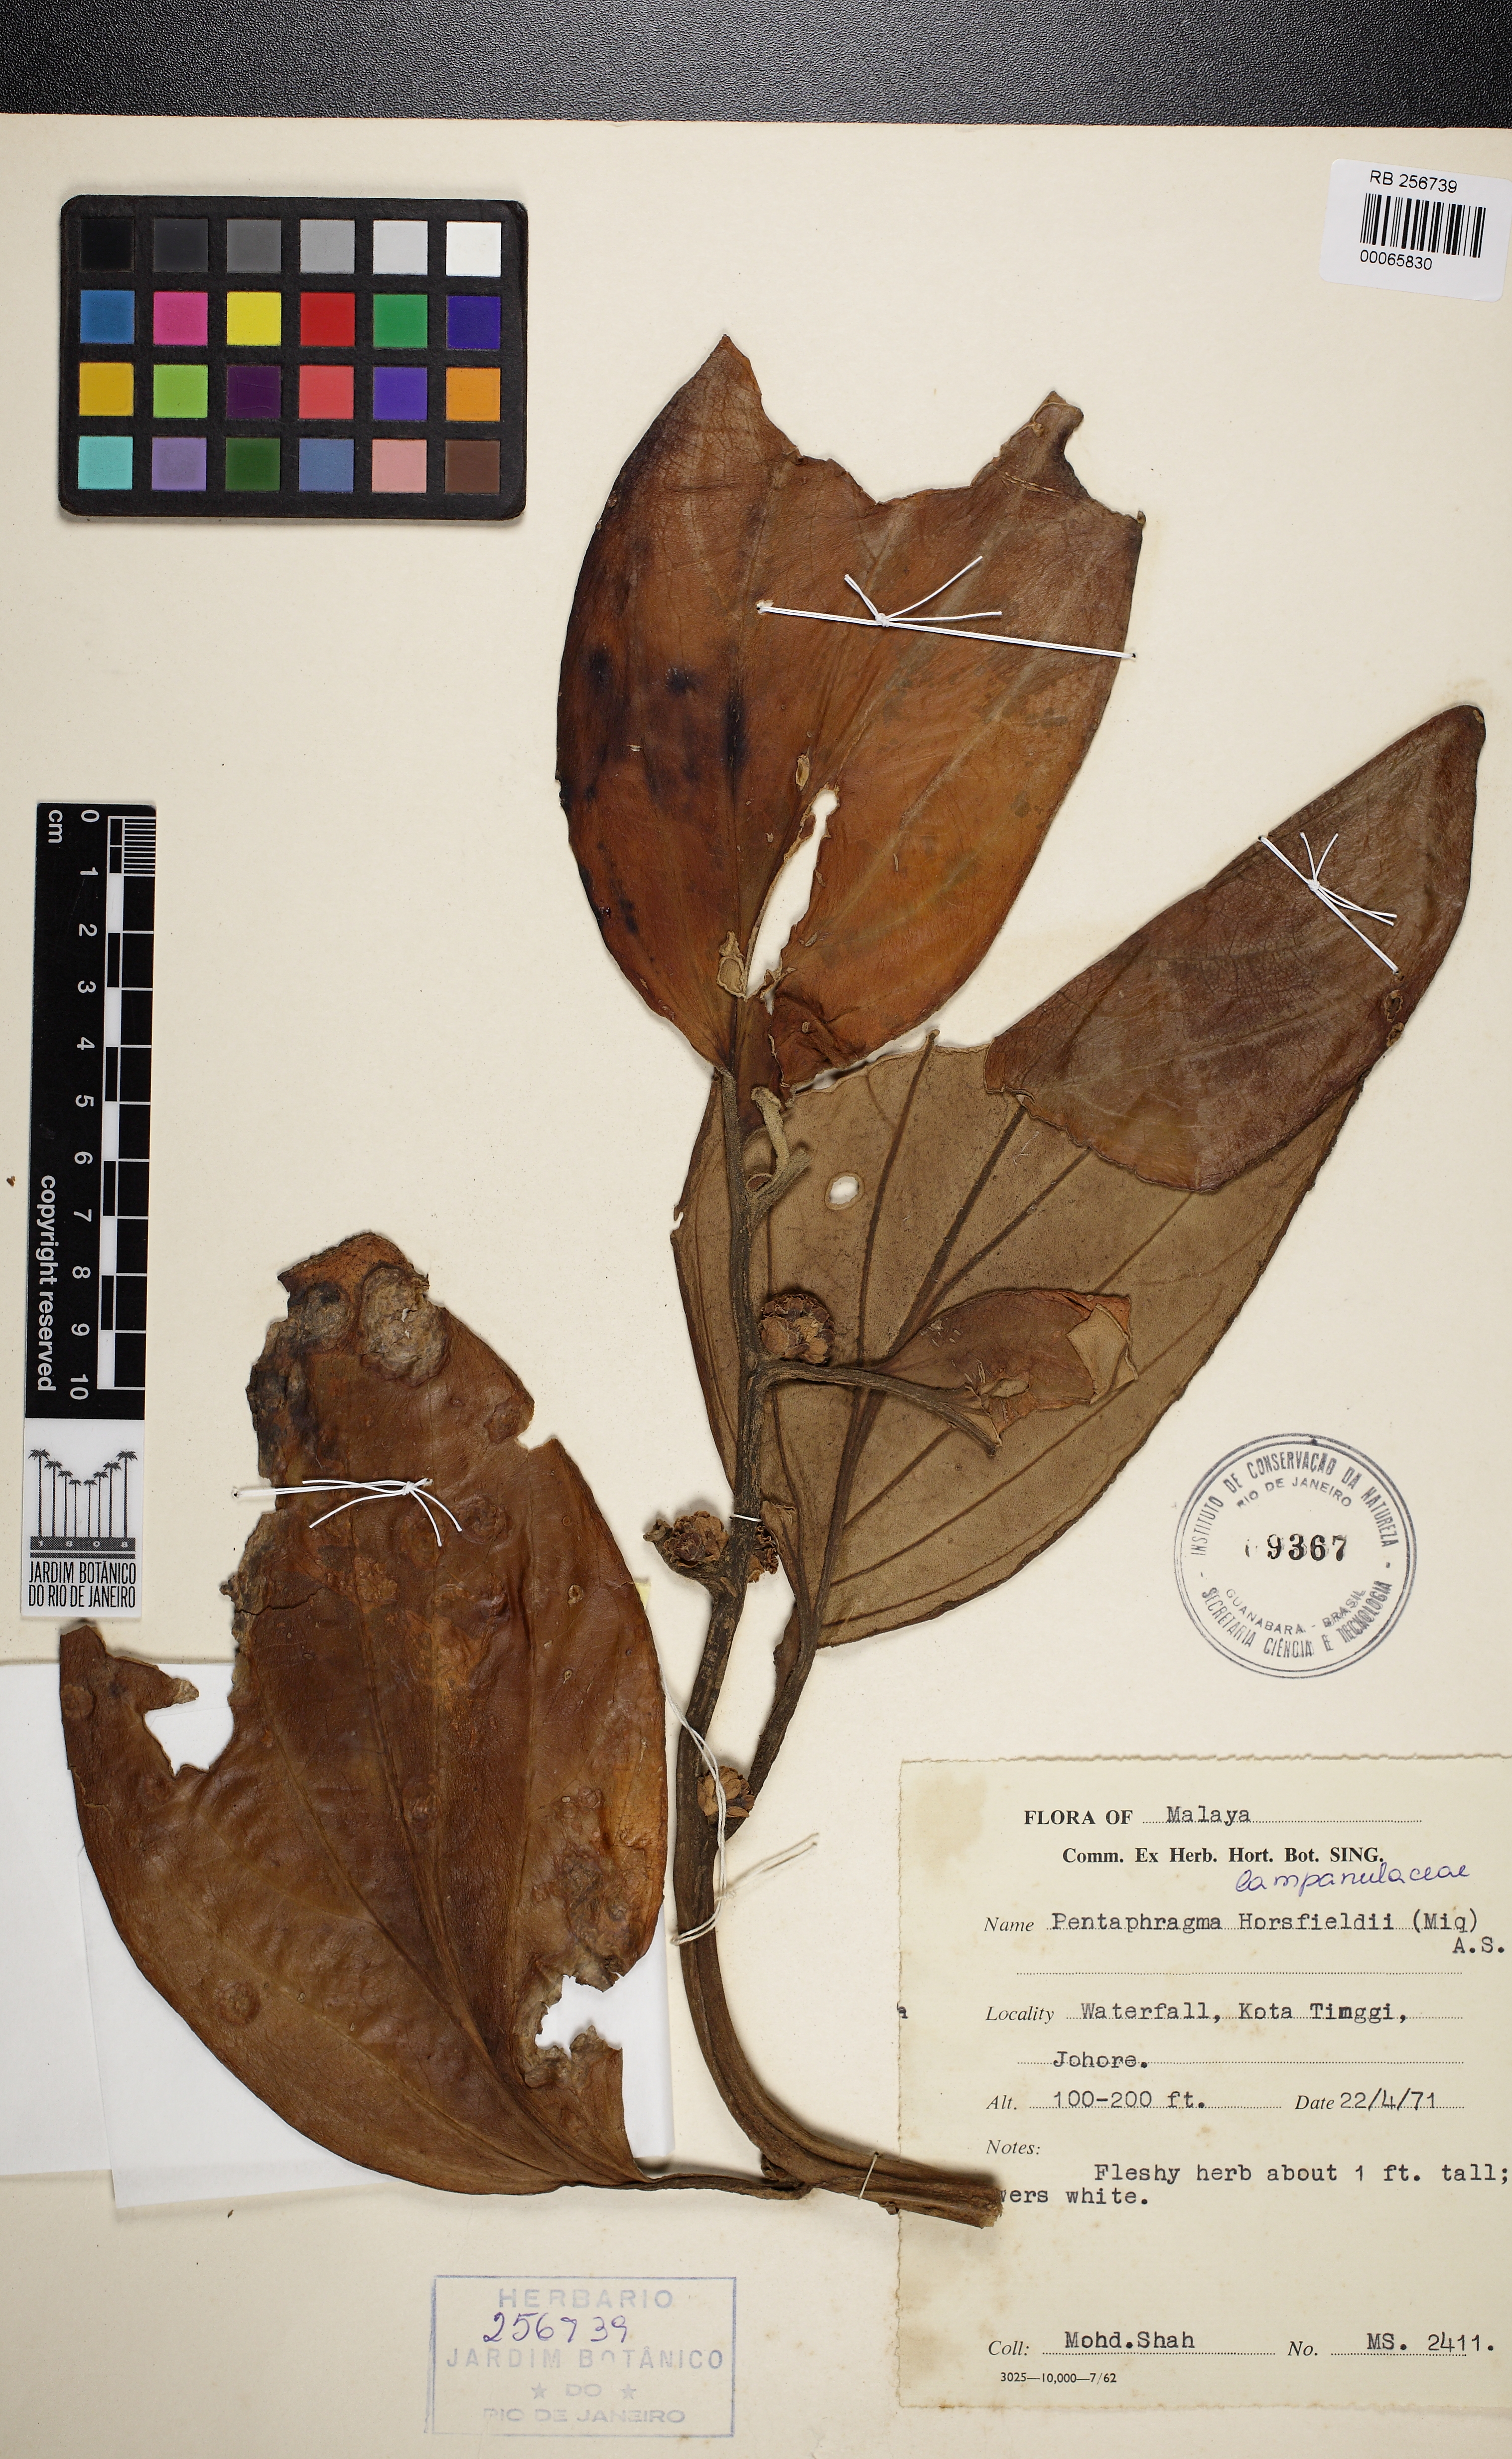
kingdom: Plantae
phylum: Tracheophyta
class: Magnoliopsida
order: Asterales
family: Pentaphragmataceae
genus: Pentaphragma
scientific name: Pentaphragma horsfieldii
